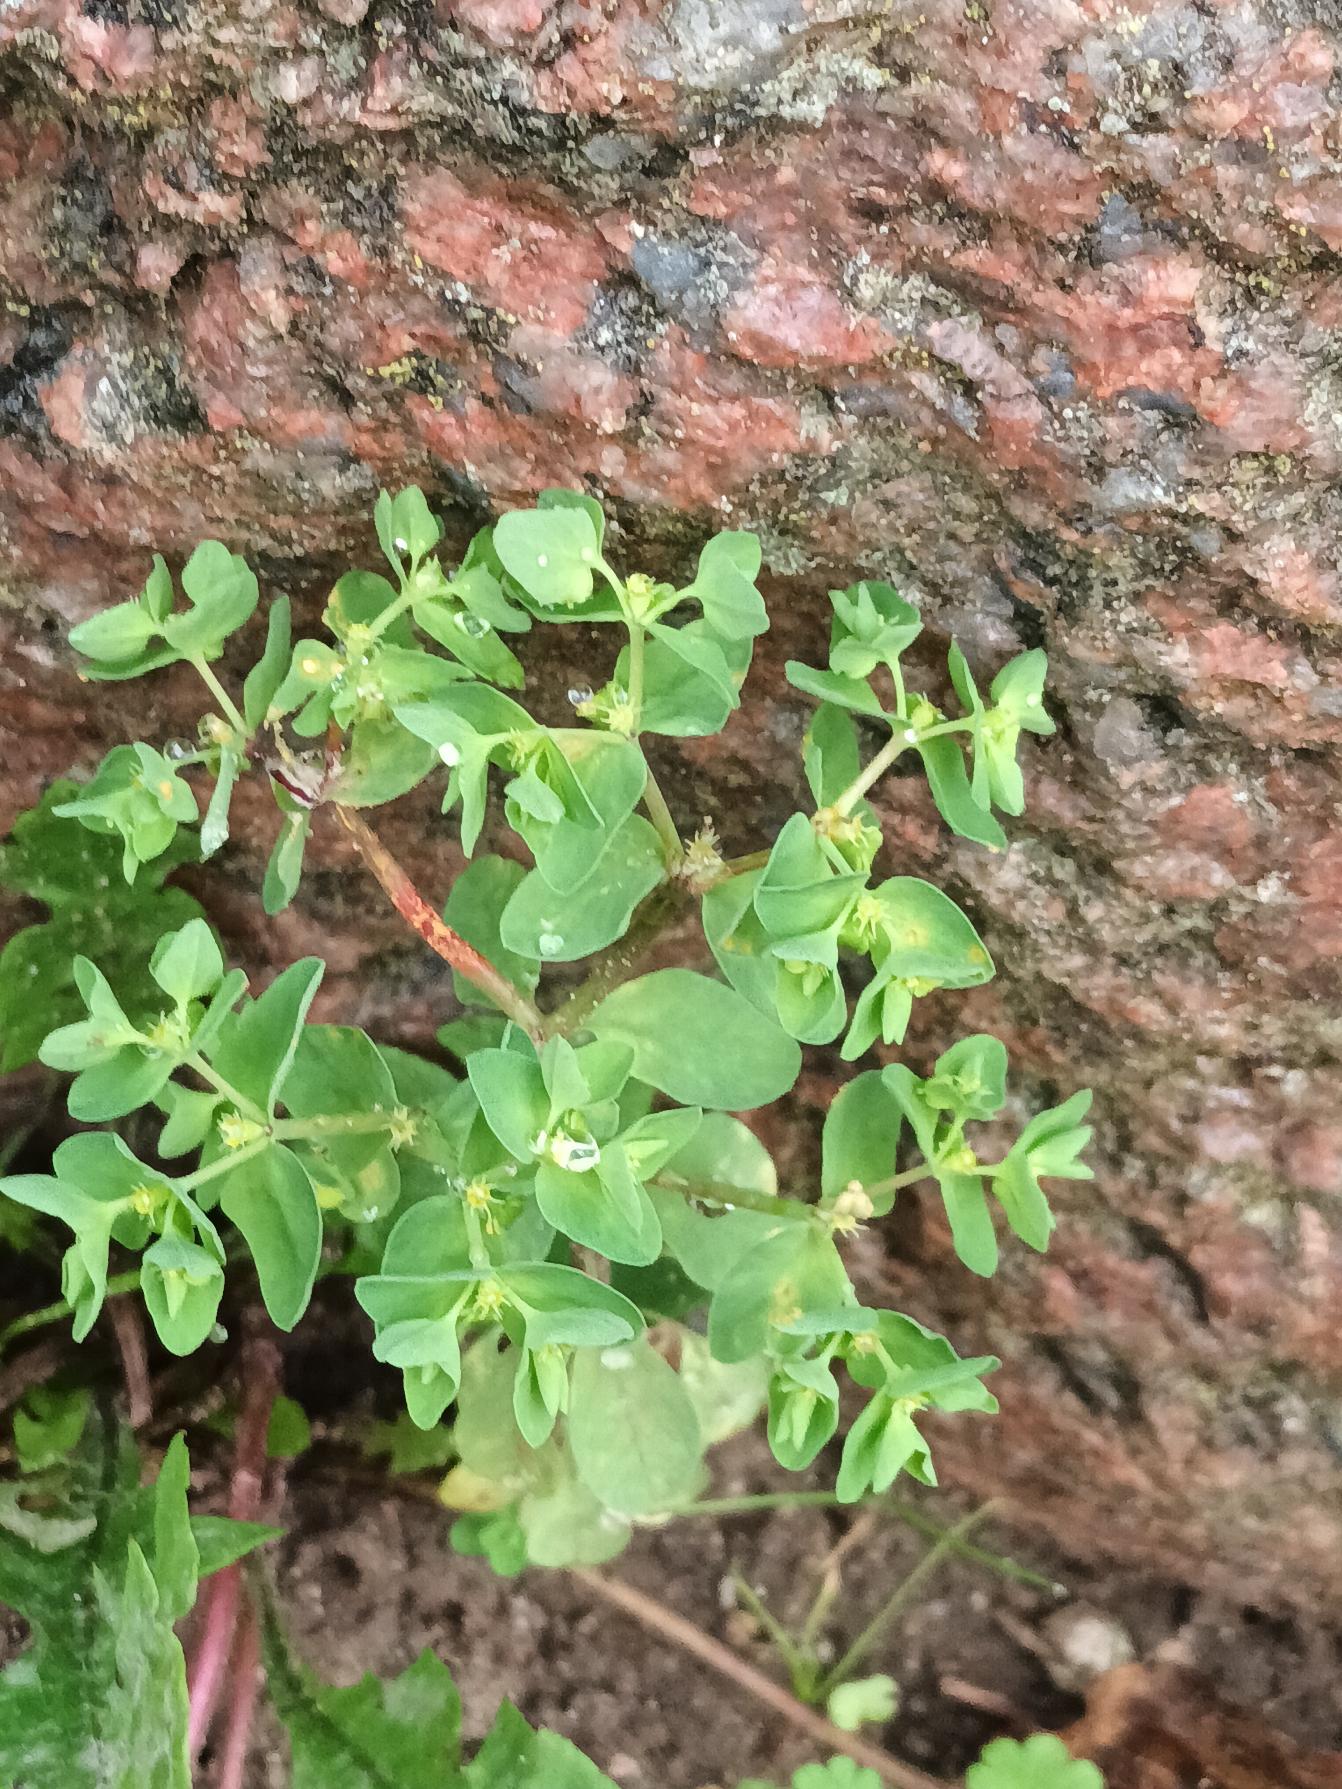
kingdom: Plantae
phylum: Tracheophyta
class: Magnoliopsida
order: Malpighiales
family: Euphorbiaceae
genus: Euphorbia
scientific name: Euphorbia peplus
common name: Gaffel-vortemælk
